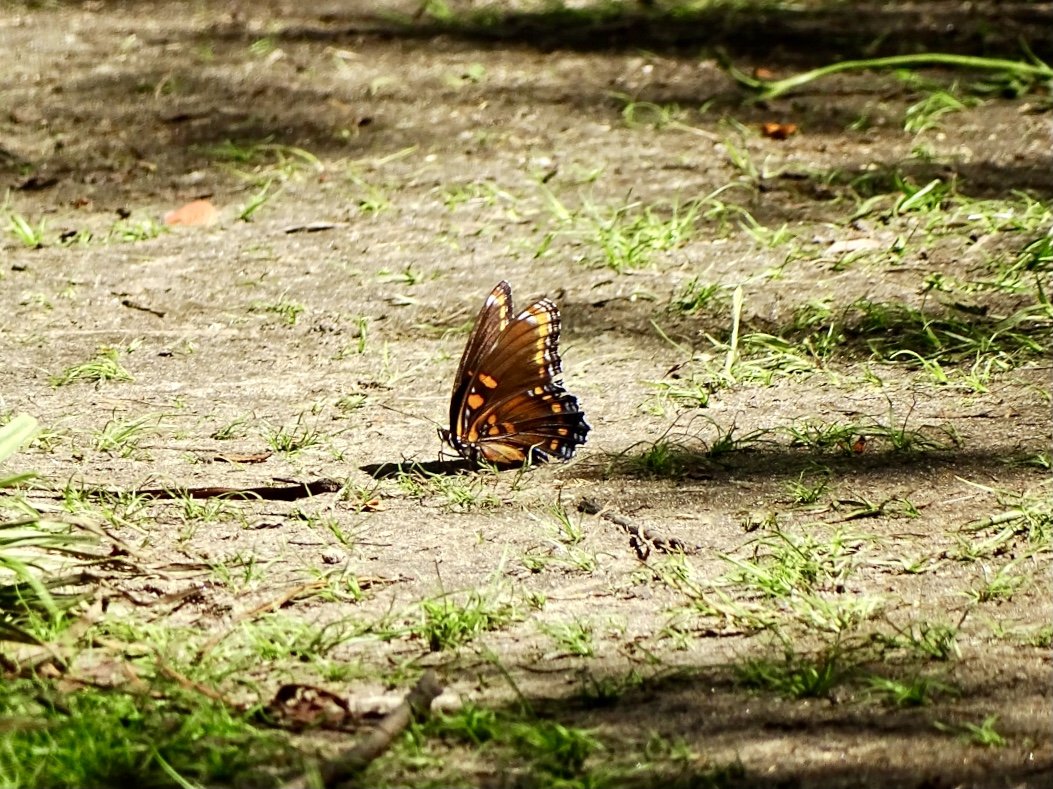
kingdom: Animalia
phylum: Arthropoda
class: Insecta
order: Lepidoptera
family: Nymphalidae
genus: Limenitis
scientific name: Limenitis arthemis
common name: Red-spotted Admiral
